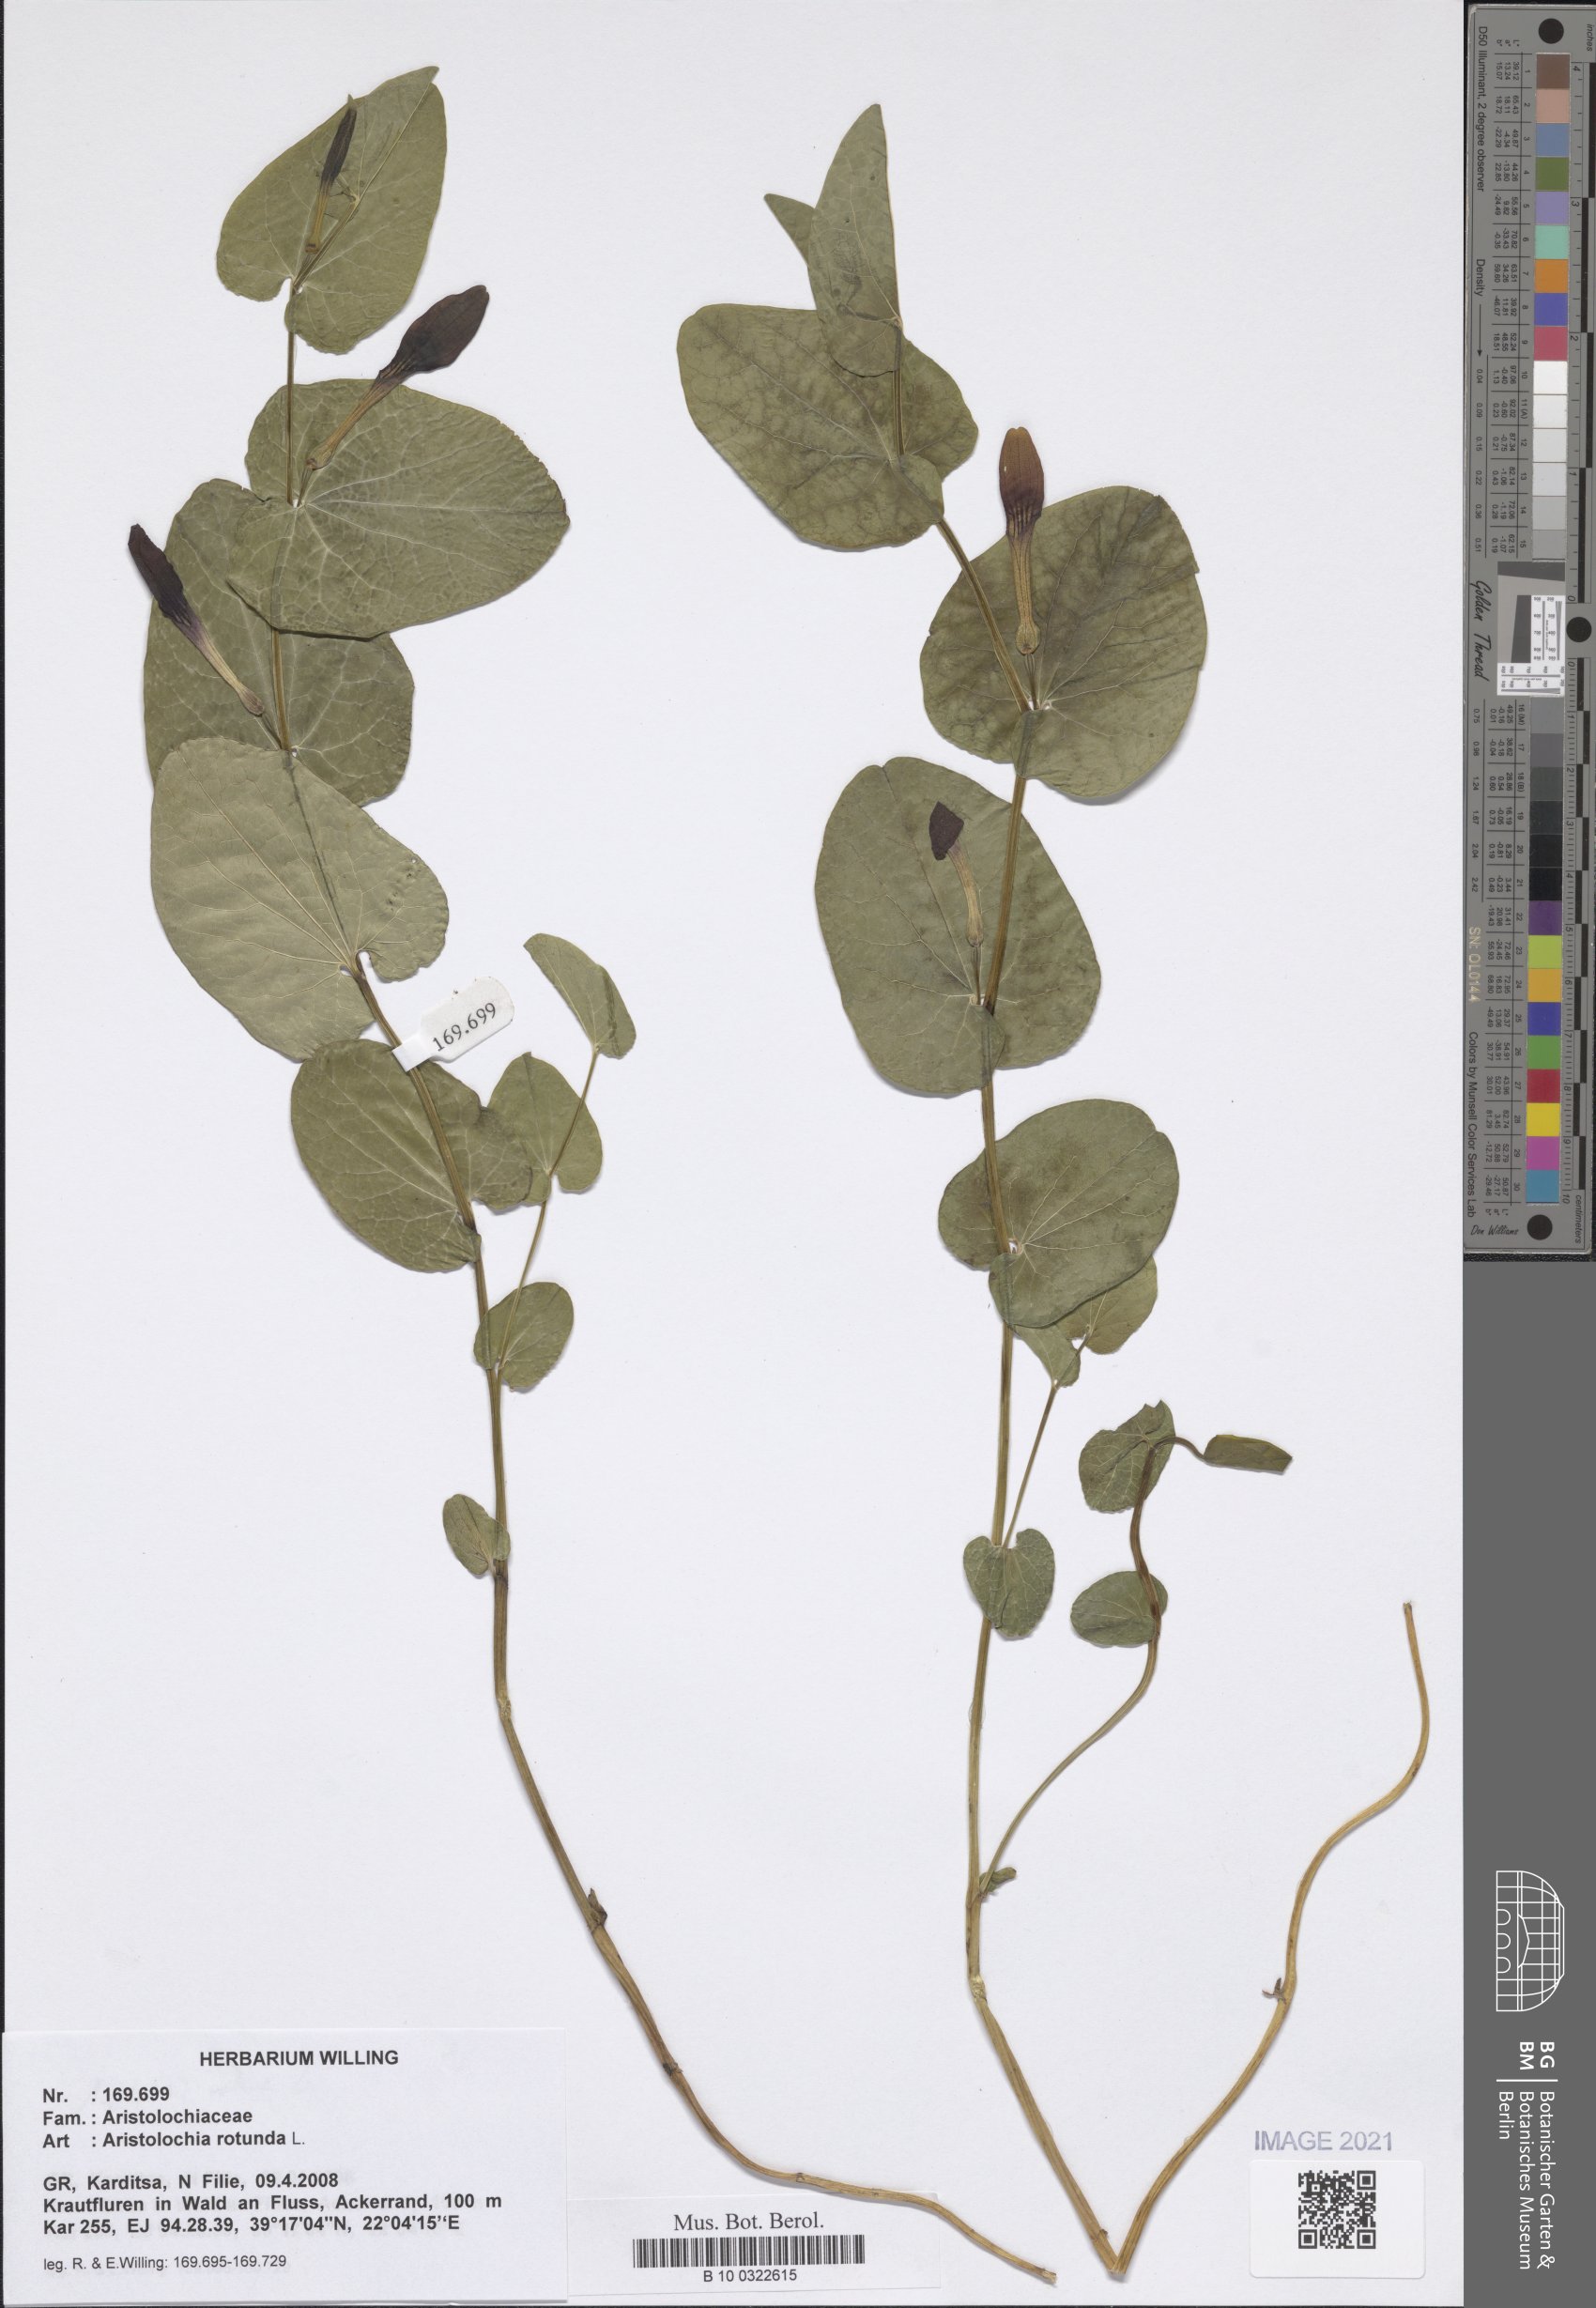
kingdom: Plantae
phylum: Tracheophyta
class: Magnoliopsida
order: Piperales
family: Aristolochiaceae
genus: Aristolochia
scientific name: Aristolochia rotunda
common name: Smearwort
